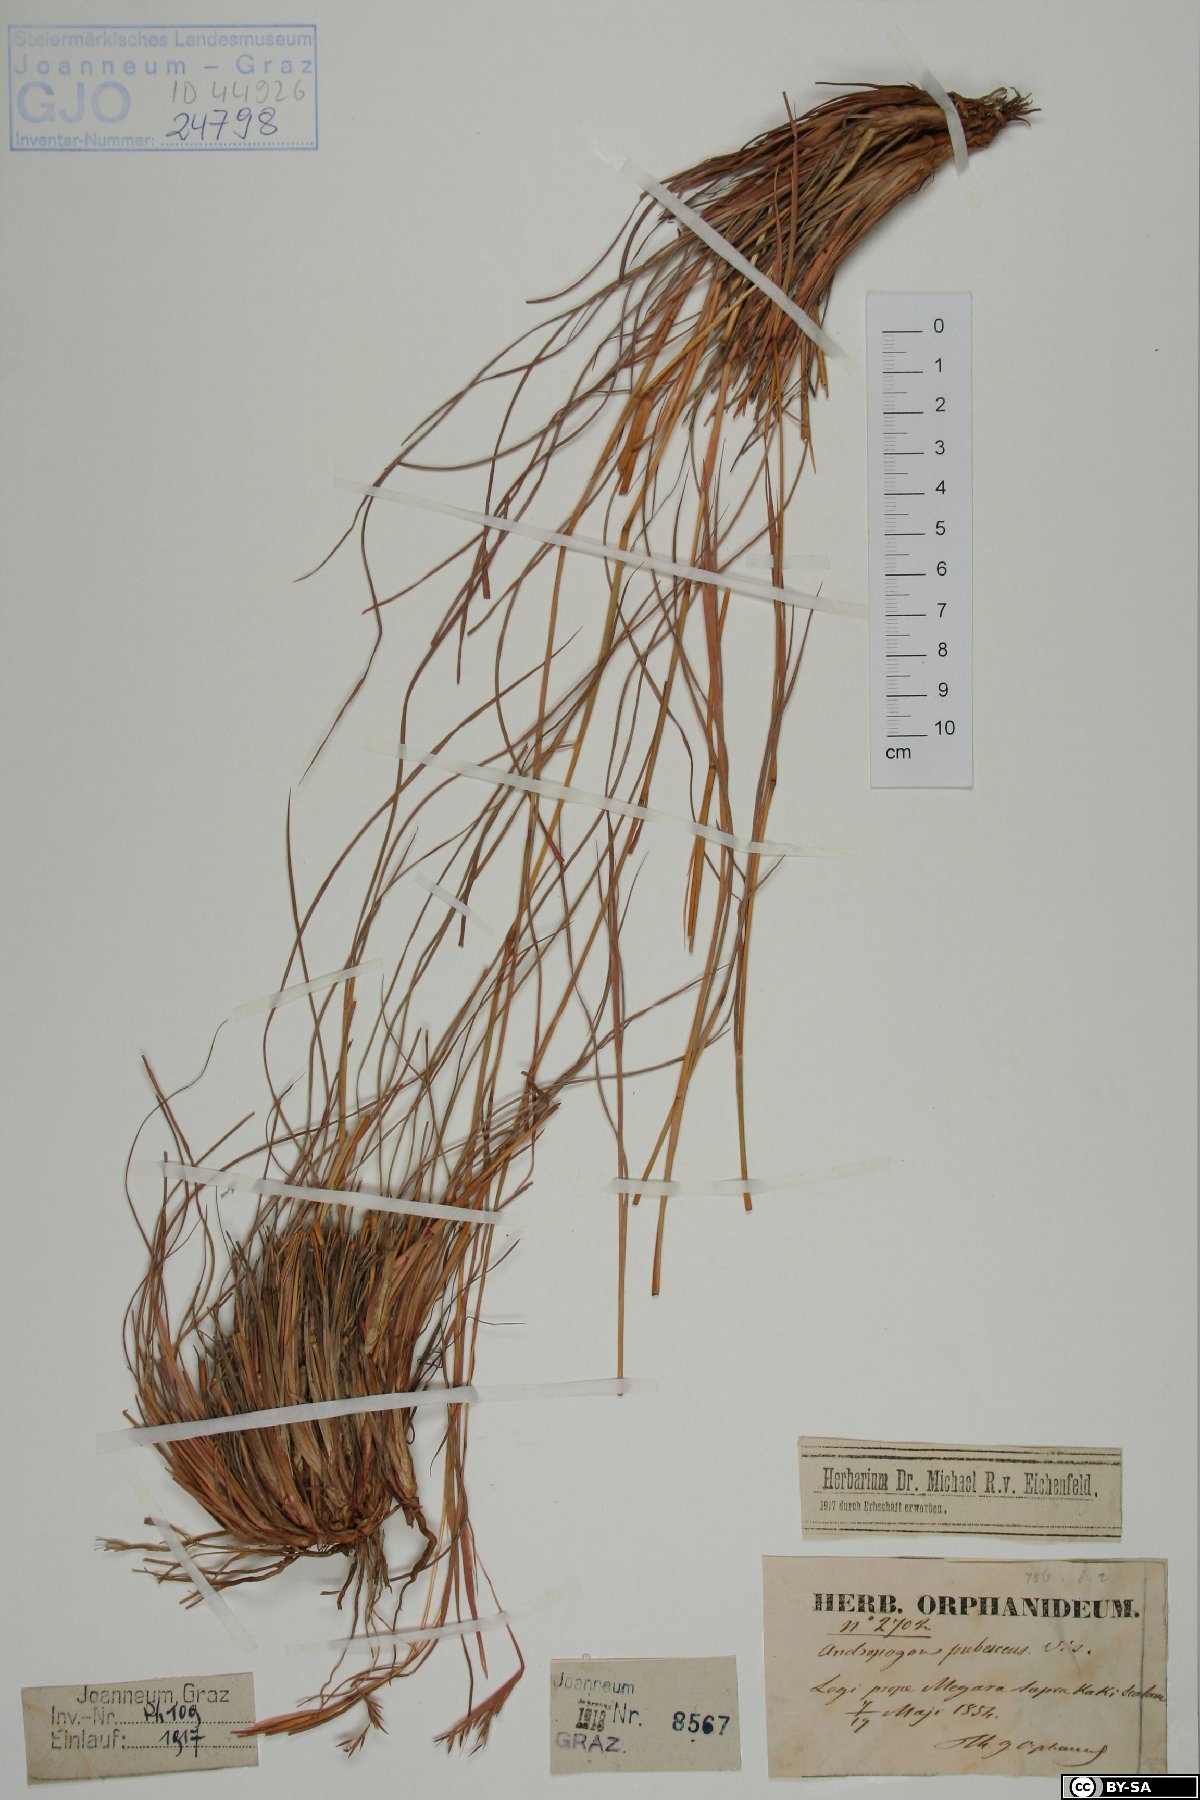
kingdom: Plantae
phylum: Tracheophyta
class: Liliopsida
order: Poales
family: Poaceae
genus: Hyparrhenia
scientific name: Hyparrhenia hirta
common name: Thatching grass
